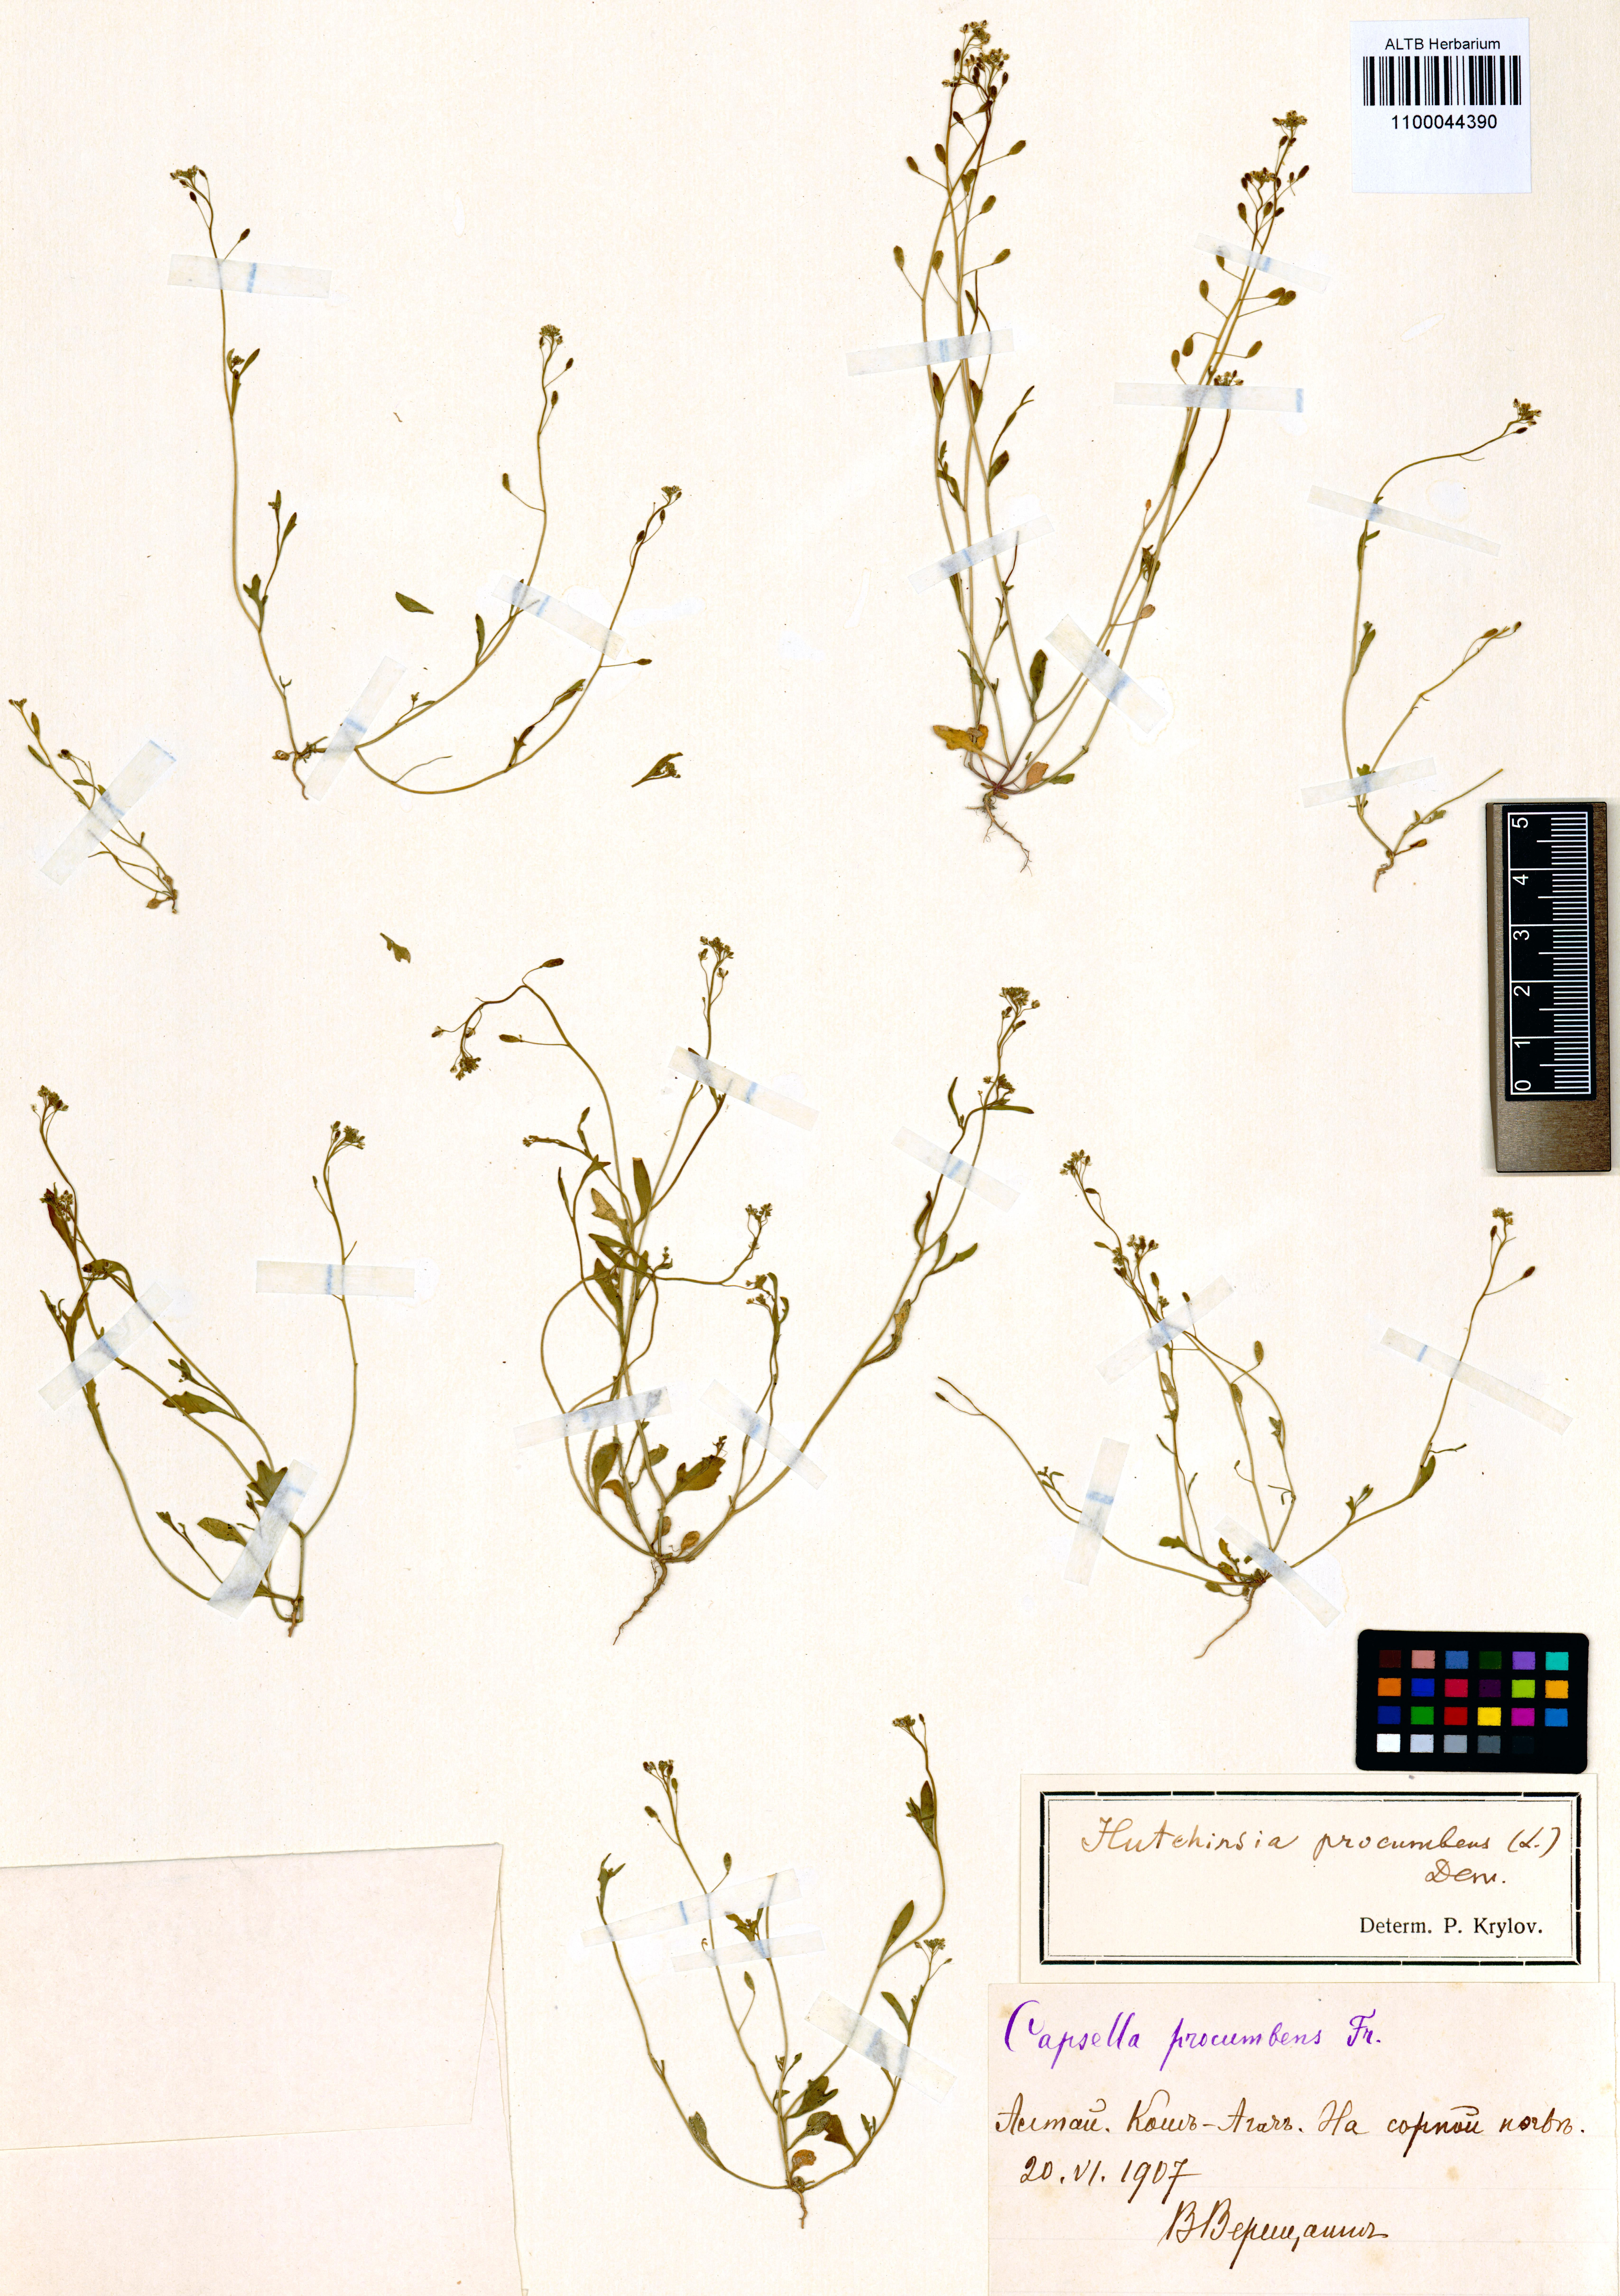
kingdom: Plantae
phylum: Tracheophyta
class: Magnoliopsida
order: Brassicales
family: Brassicaceae
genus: Hornungia
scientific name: Hornungia procumbens
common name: Oval purse
